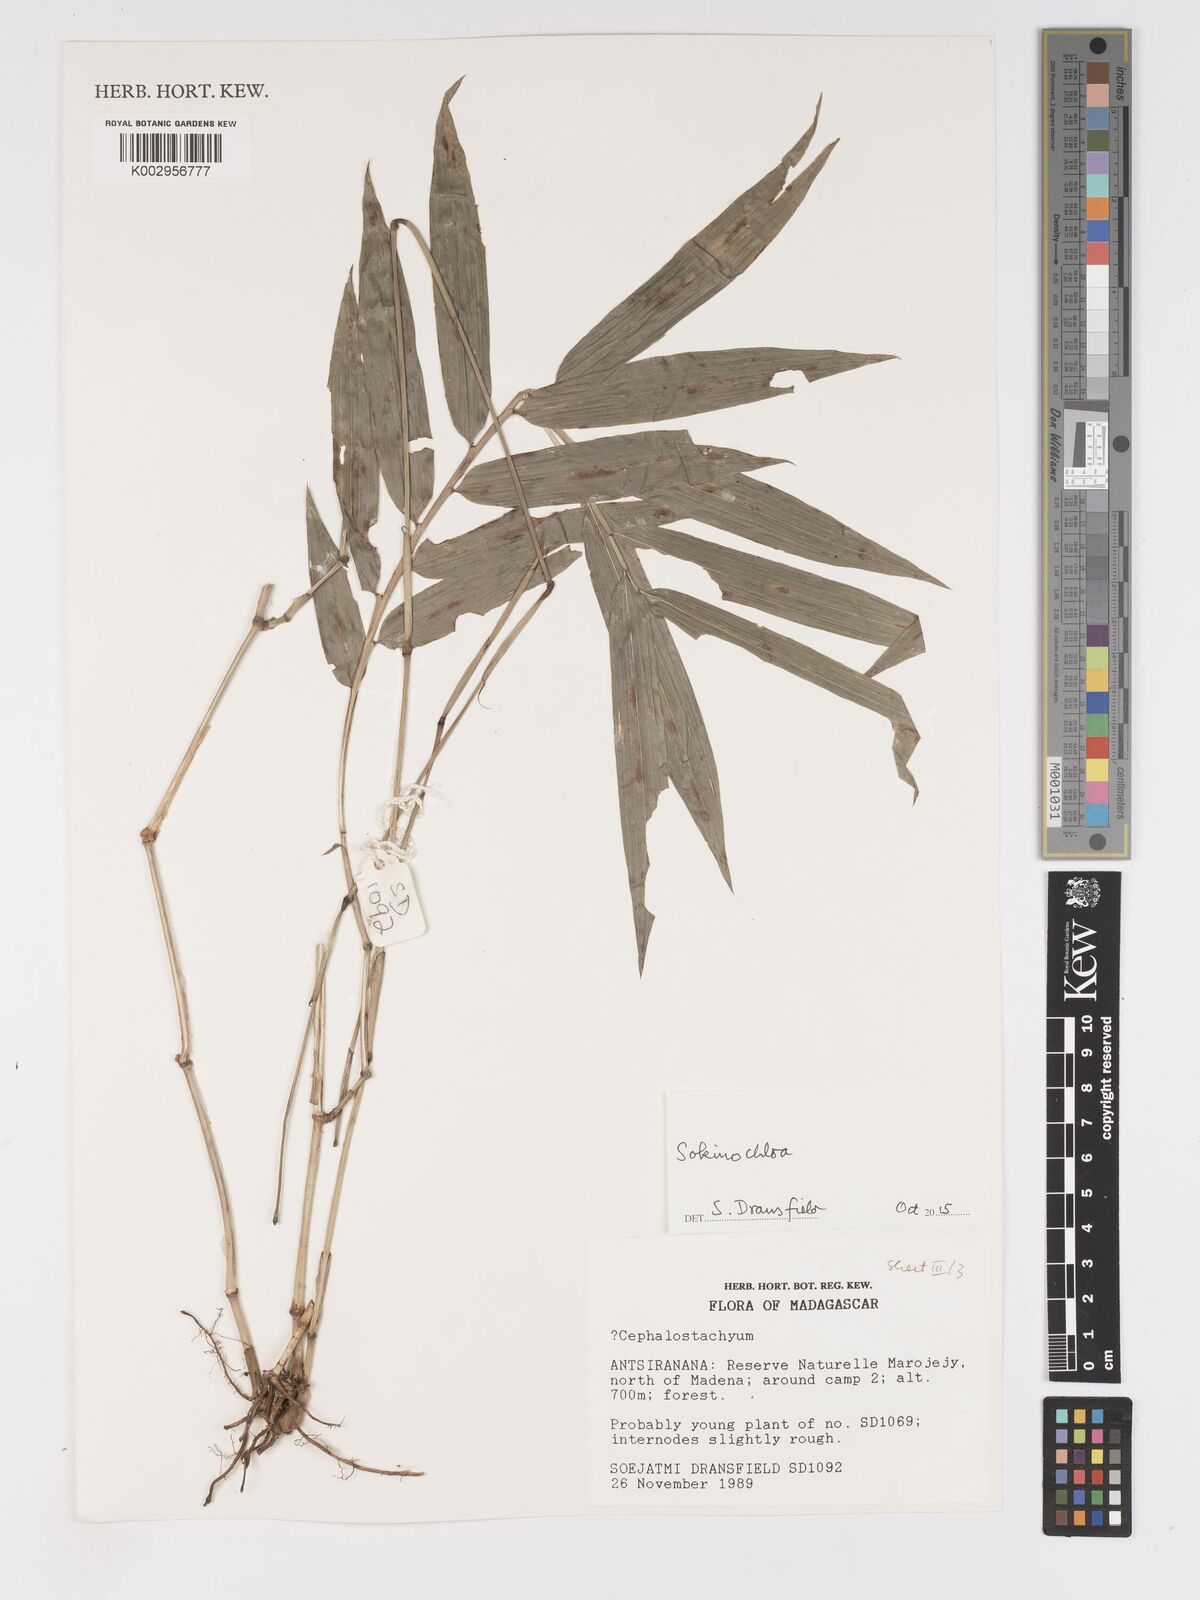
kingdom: Plantae
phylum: Tracheophyta
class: Liliopsida
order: Poales
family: Poaceae
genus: Sokinochloa
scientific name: Sokinochloa
